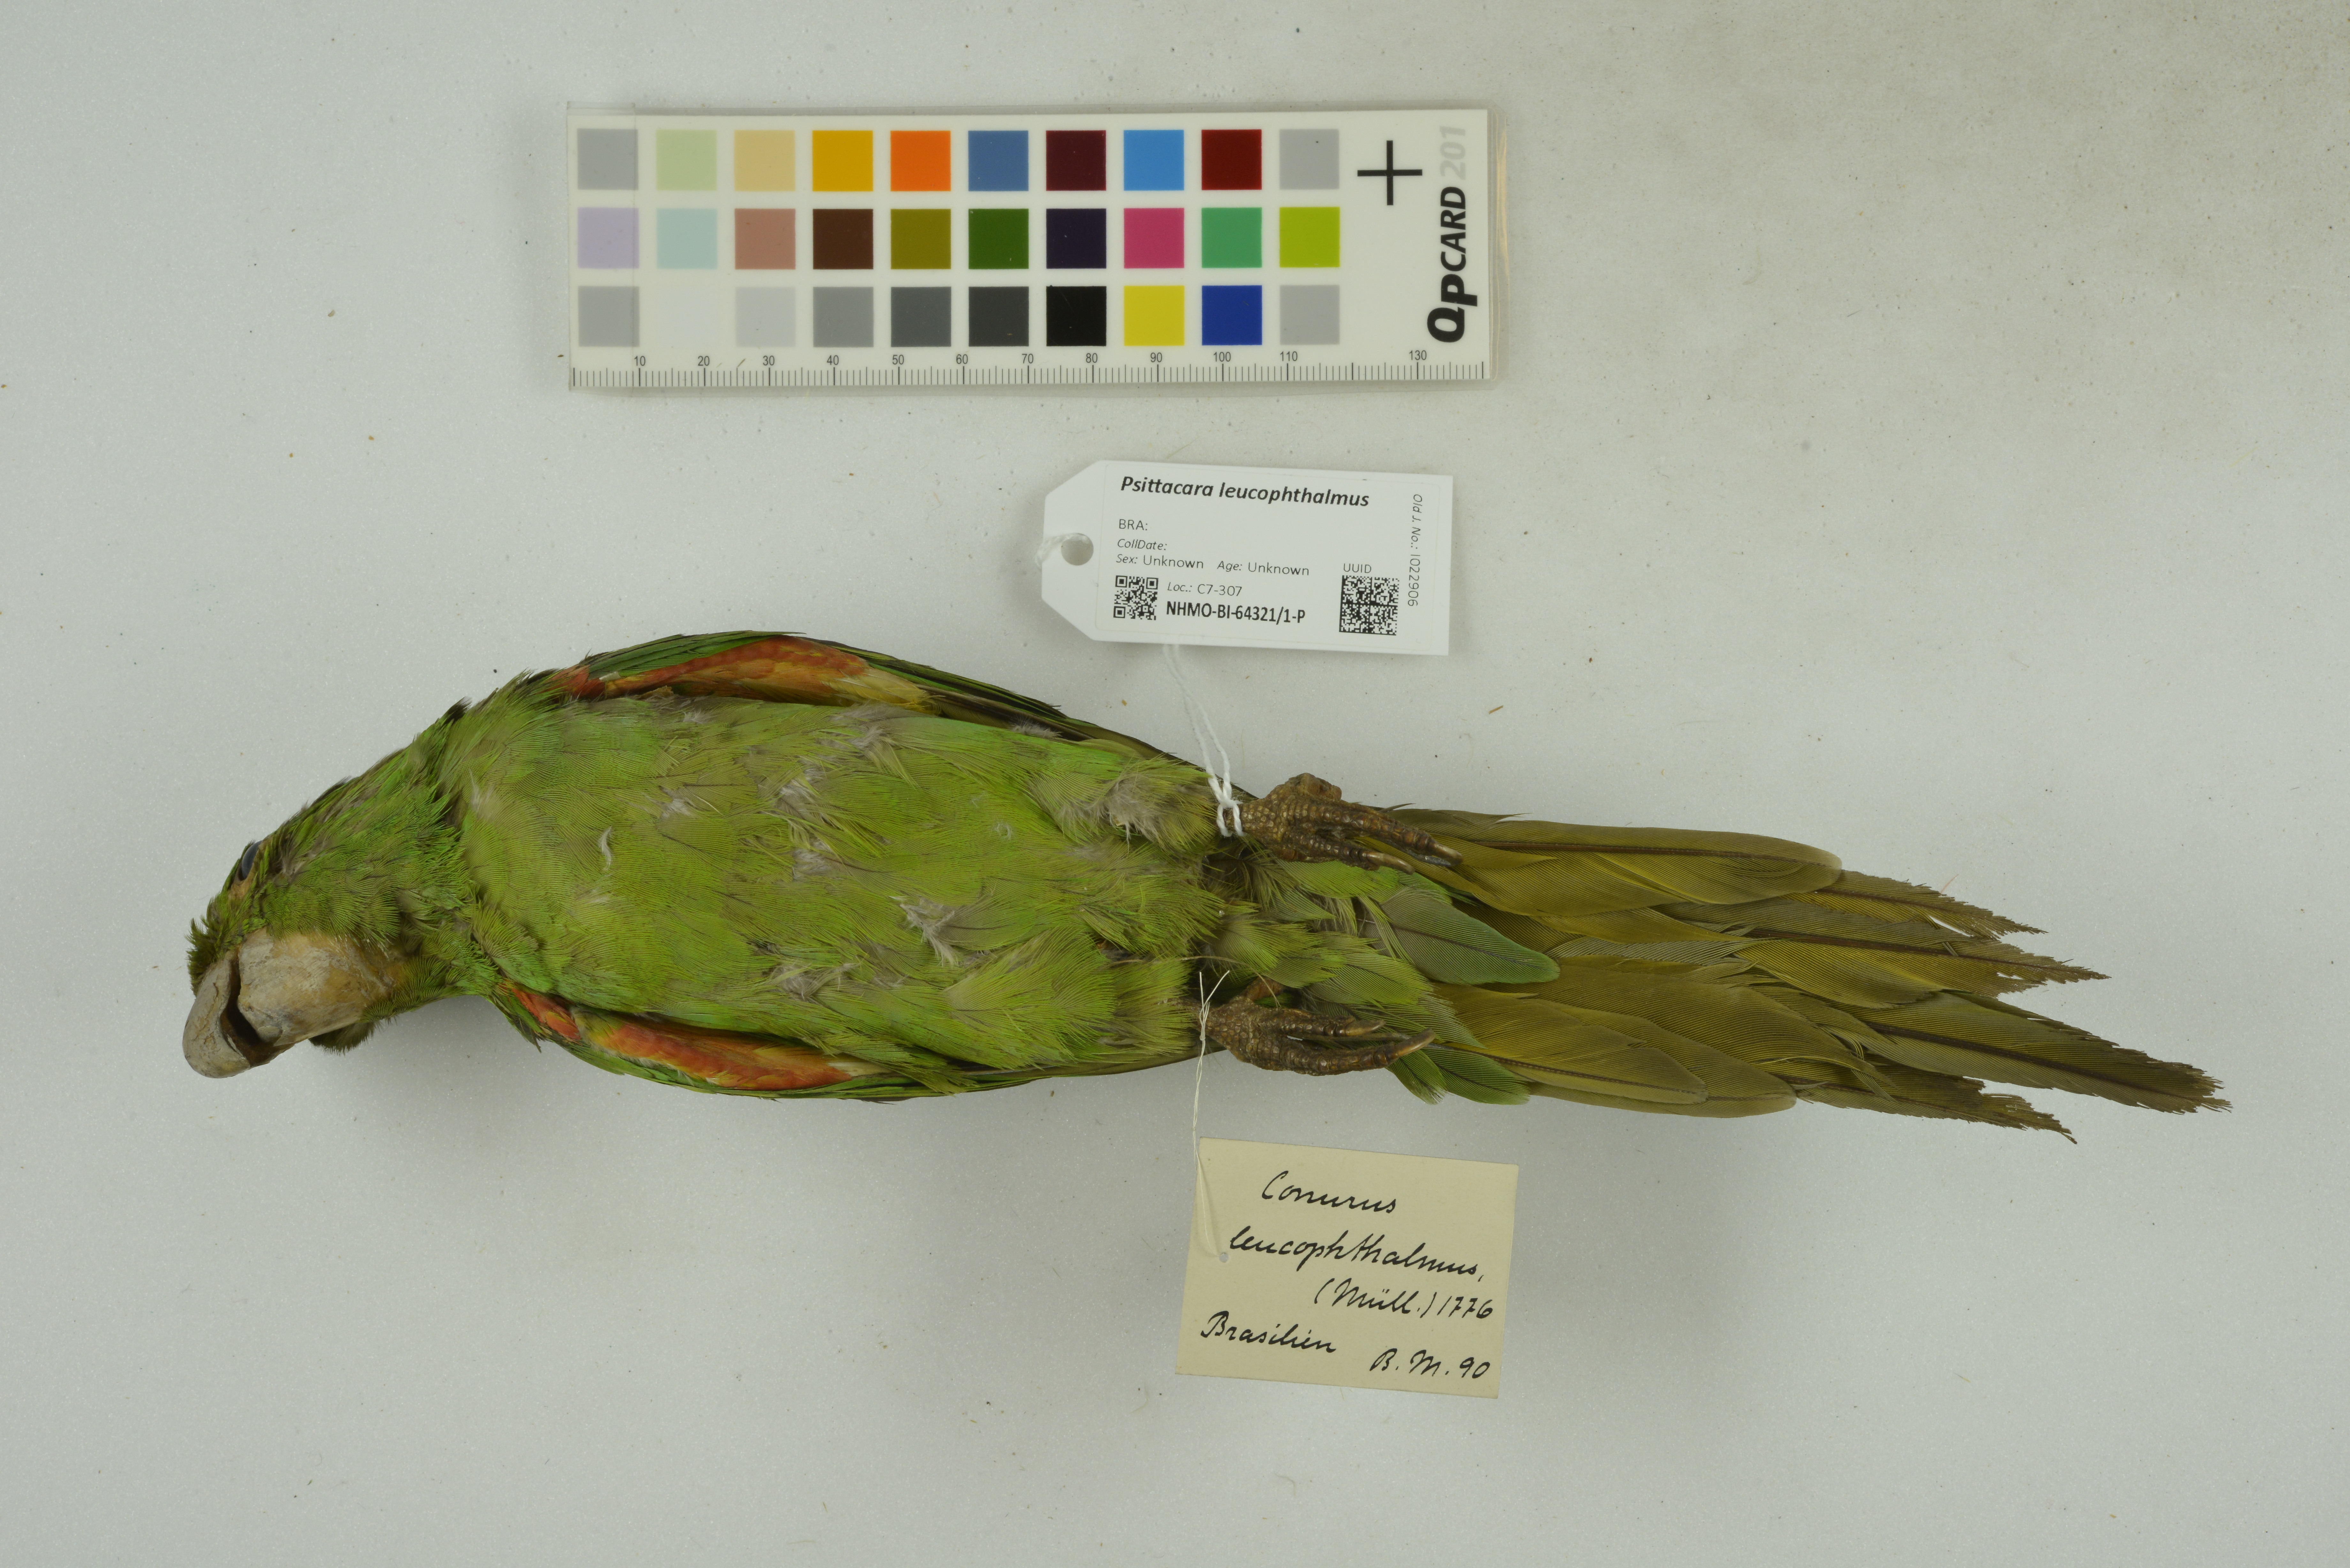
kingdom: Animalia
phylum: Chordata
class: Aves
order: Psittaciformes
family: Psittacidae
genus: Aratinga
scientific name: Aratinga leucophthalma
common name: White-eyed parakeet
